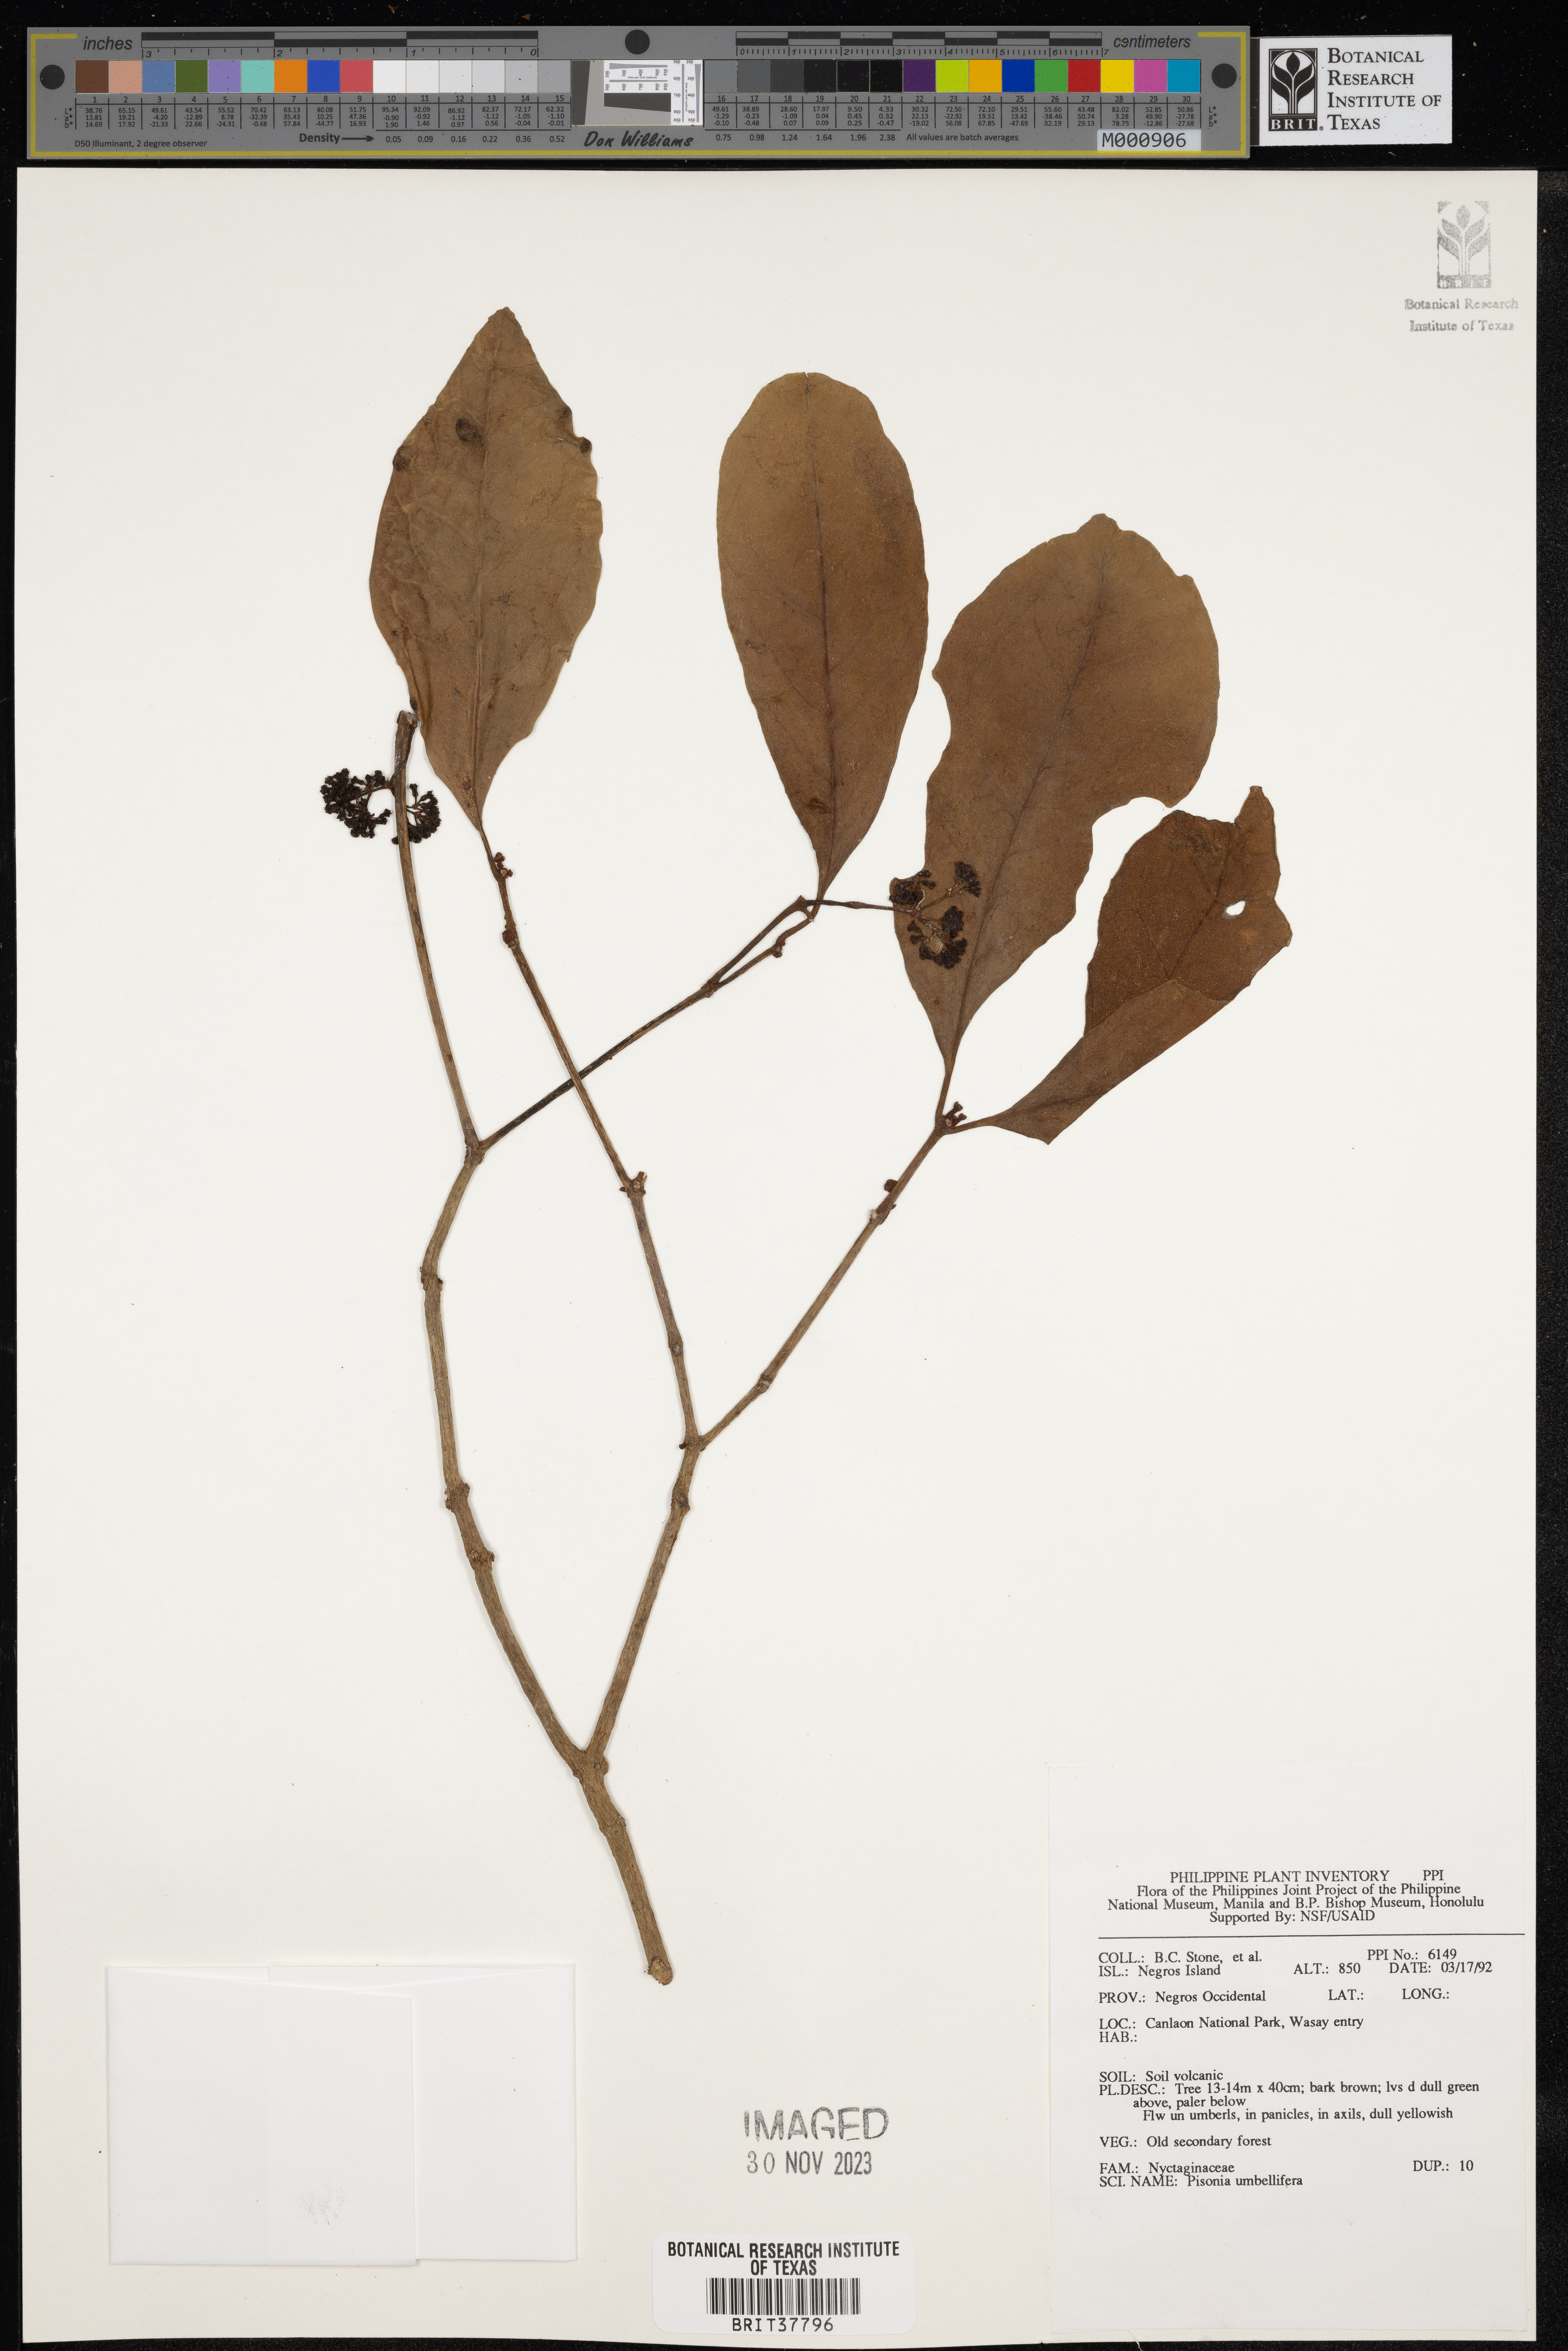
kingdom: Plantae
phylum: Tracheophyta
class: Magnoliopsida
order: Caryophyllales
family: Nyctaginaceae
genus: Ceodes
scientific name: Ceodes umbellifera
